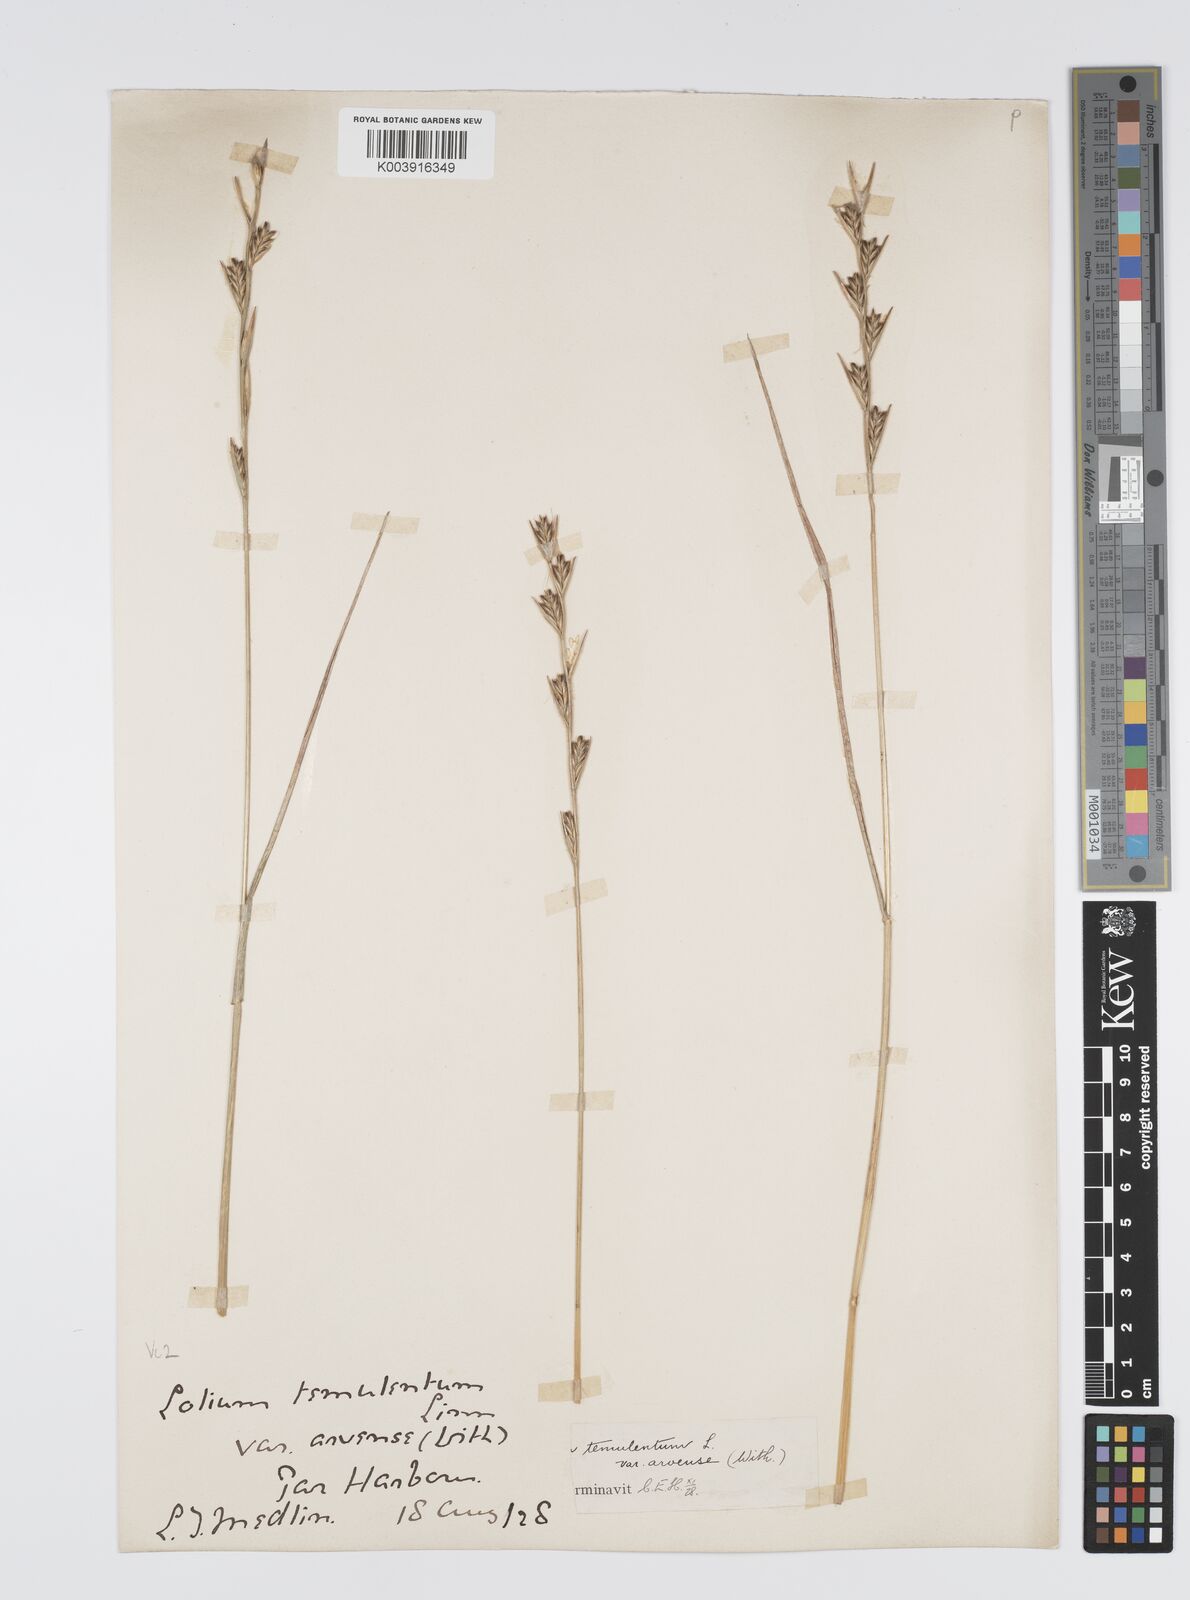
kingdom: Plantae
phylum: Tracheophyta
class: Liliopsida
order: Poales
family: Poaceae
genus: Lolium
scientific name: Lolium temulentum
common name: Darnel
